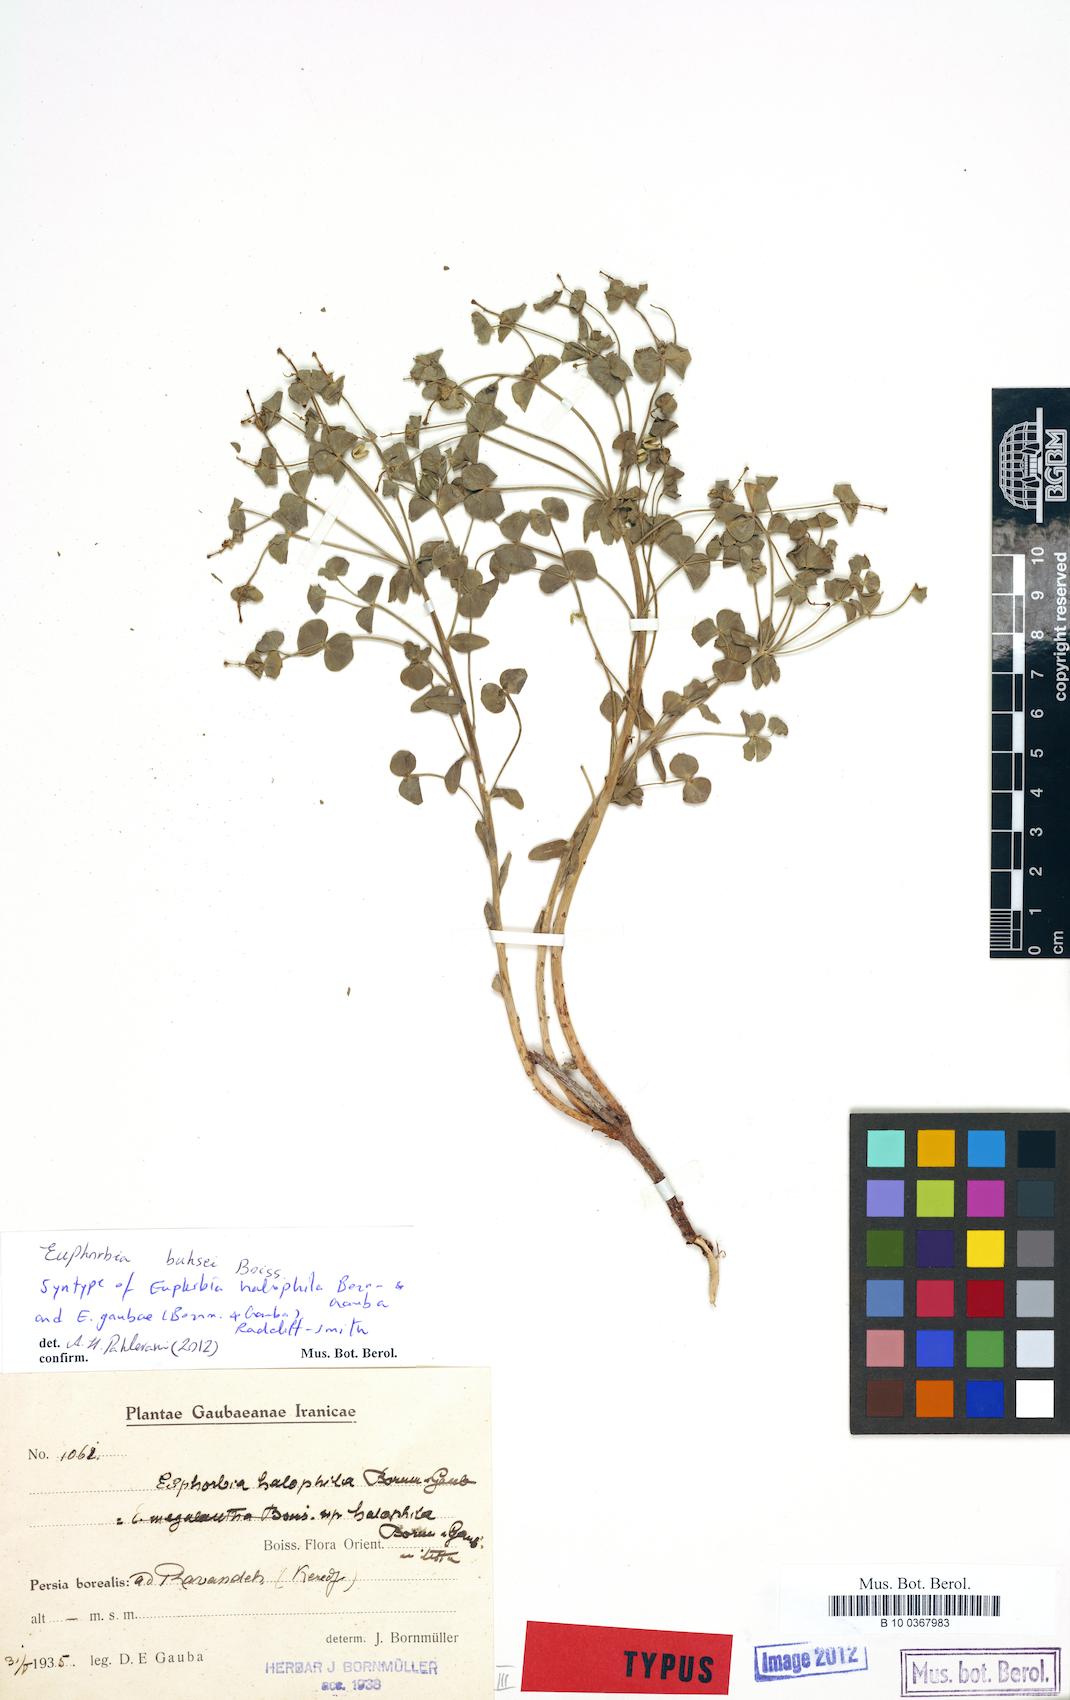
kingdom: Plantae
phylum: Tracheophyta
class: Magnoliopsida
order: Malpighiales
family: Euphorbiaceae
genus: Euphorbia
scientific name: Euphorbia buhsei
